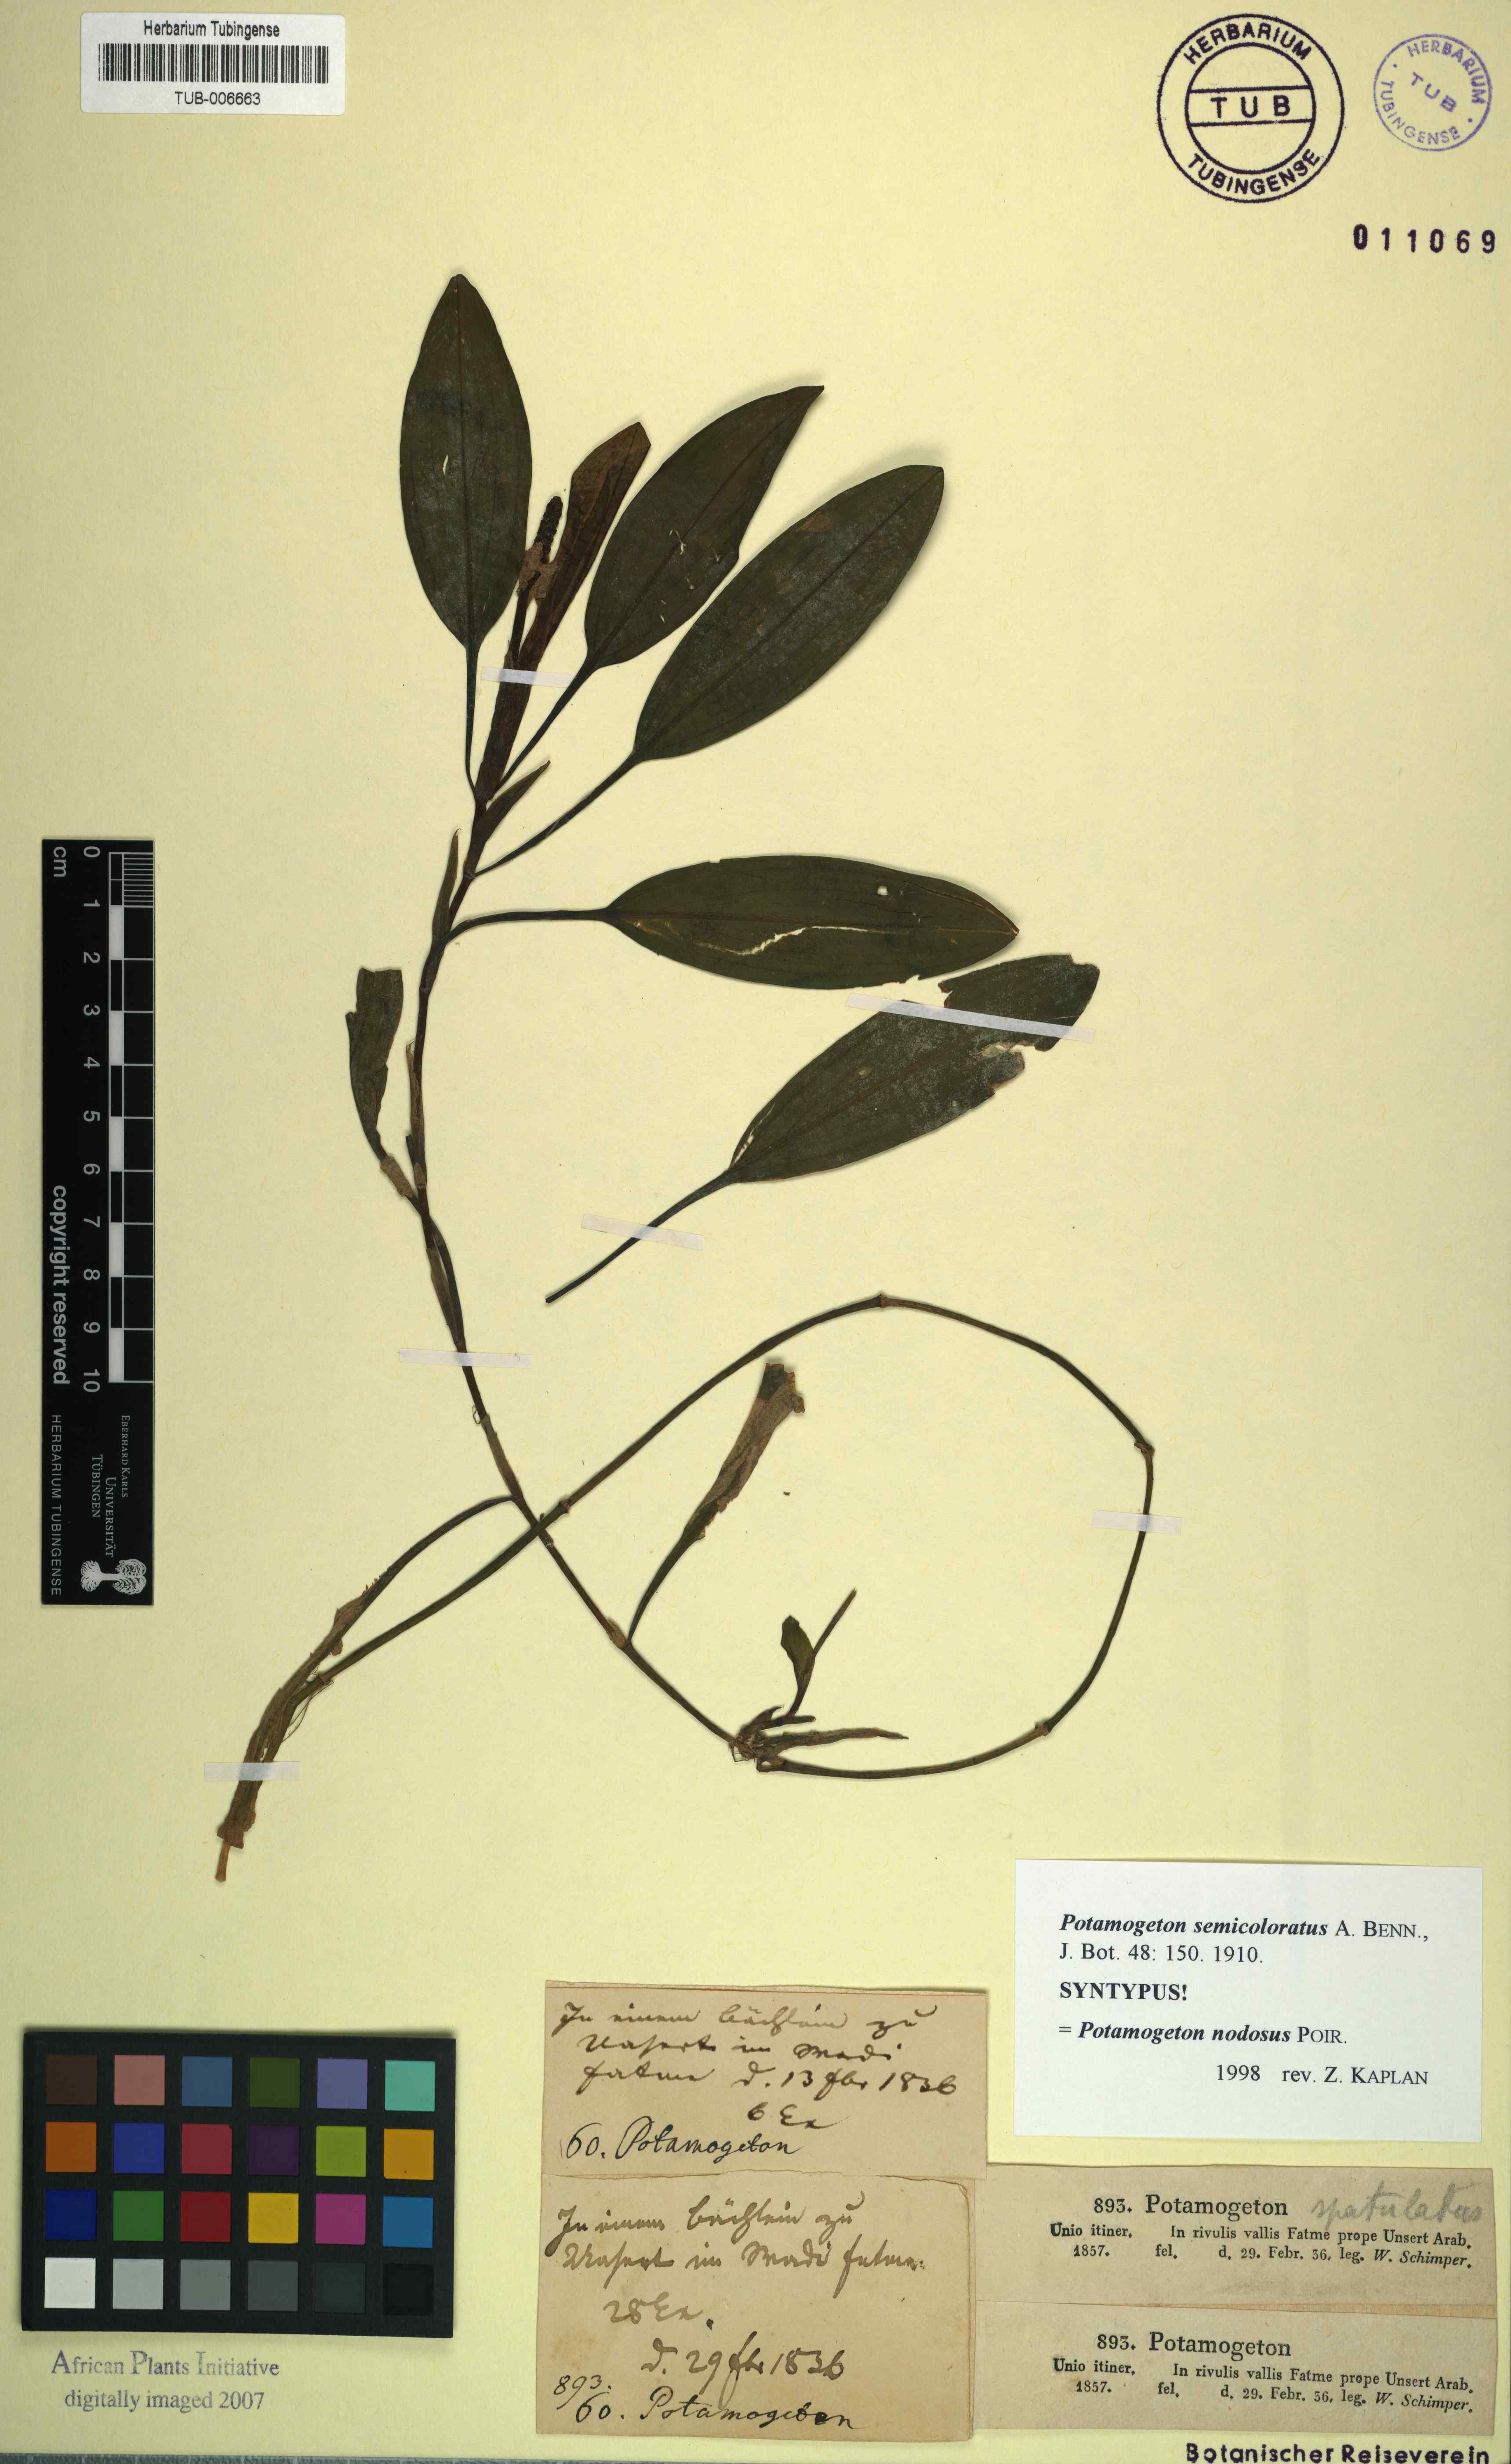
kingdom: Plantae
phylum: Tracheophyta
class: Liliopsida
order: Alismatales
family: Potamogetonaceae
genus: Potamogeton
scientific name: Potamogeton nodosus
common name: Loddon pondweed
